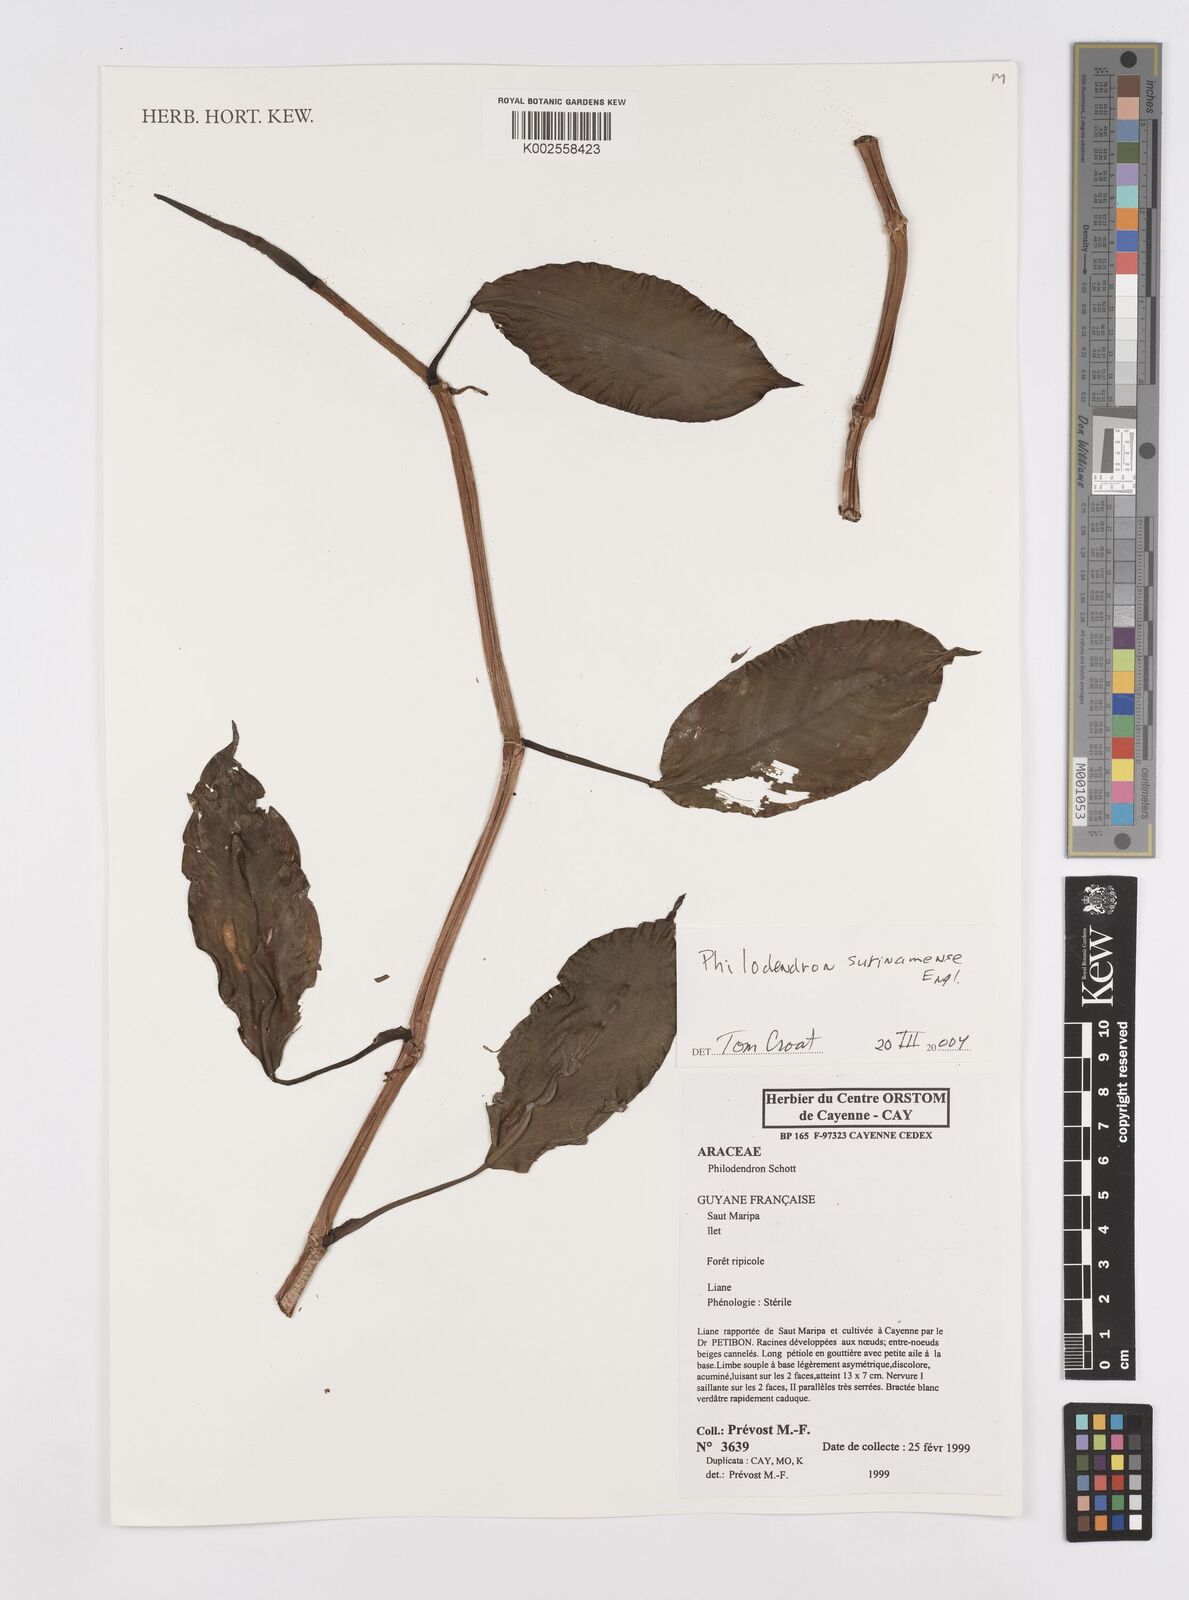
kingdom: Plantae
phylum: Tracheophyta
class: Liliopsida
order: Alismatales
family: Araceae
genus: Philodendron
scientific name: Philodendron surinamense
